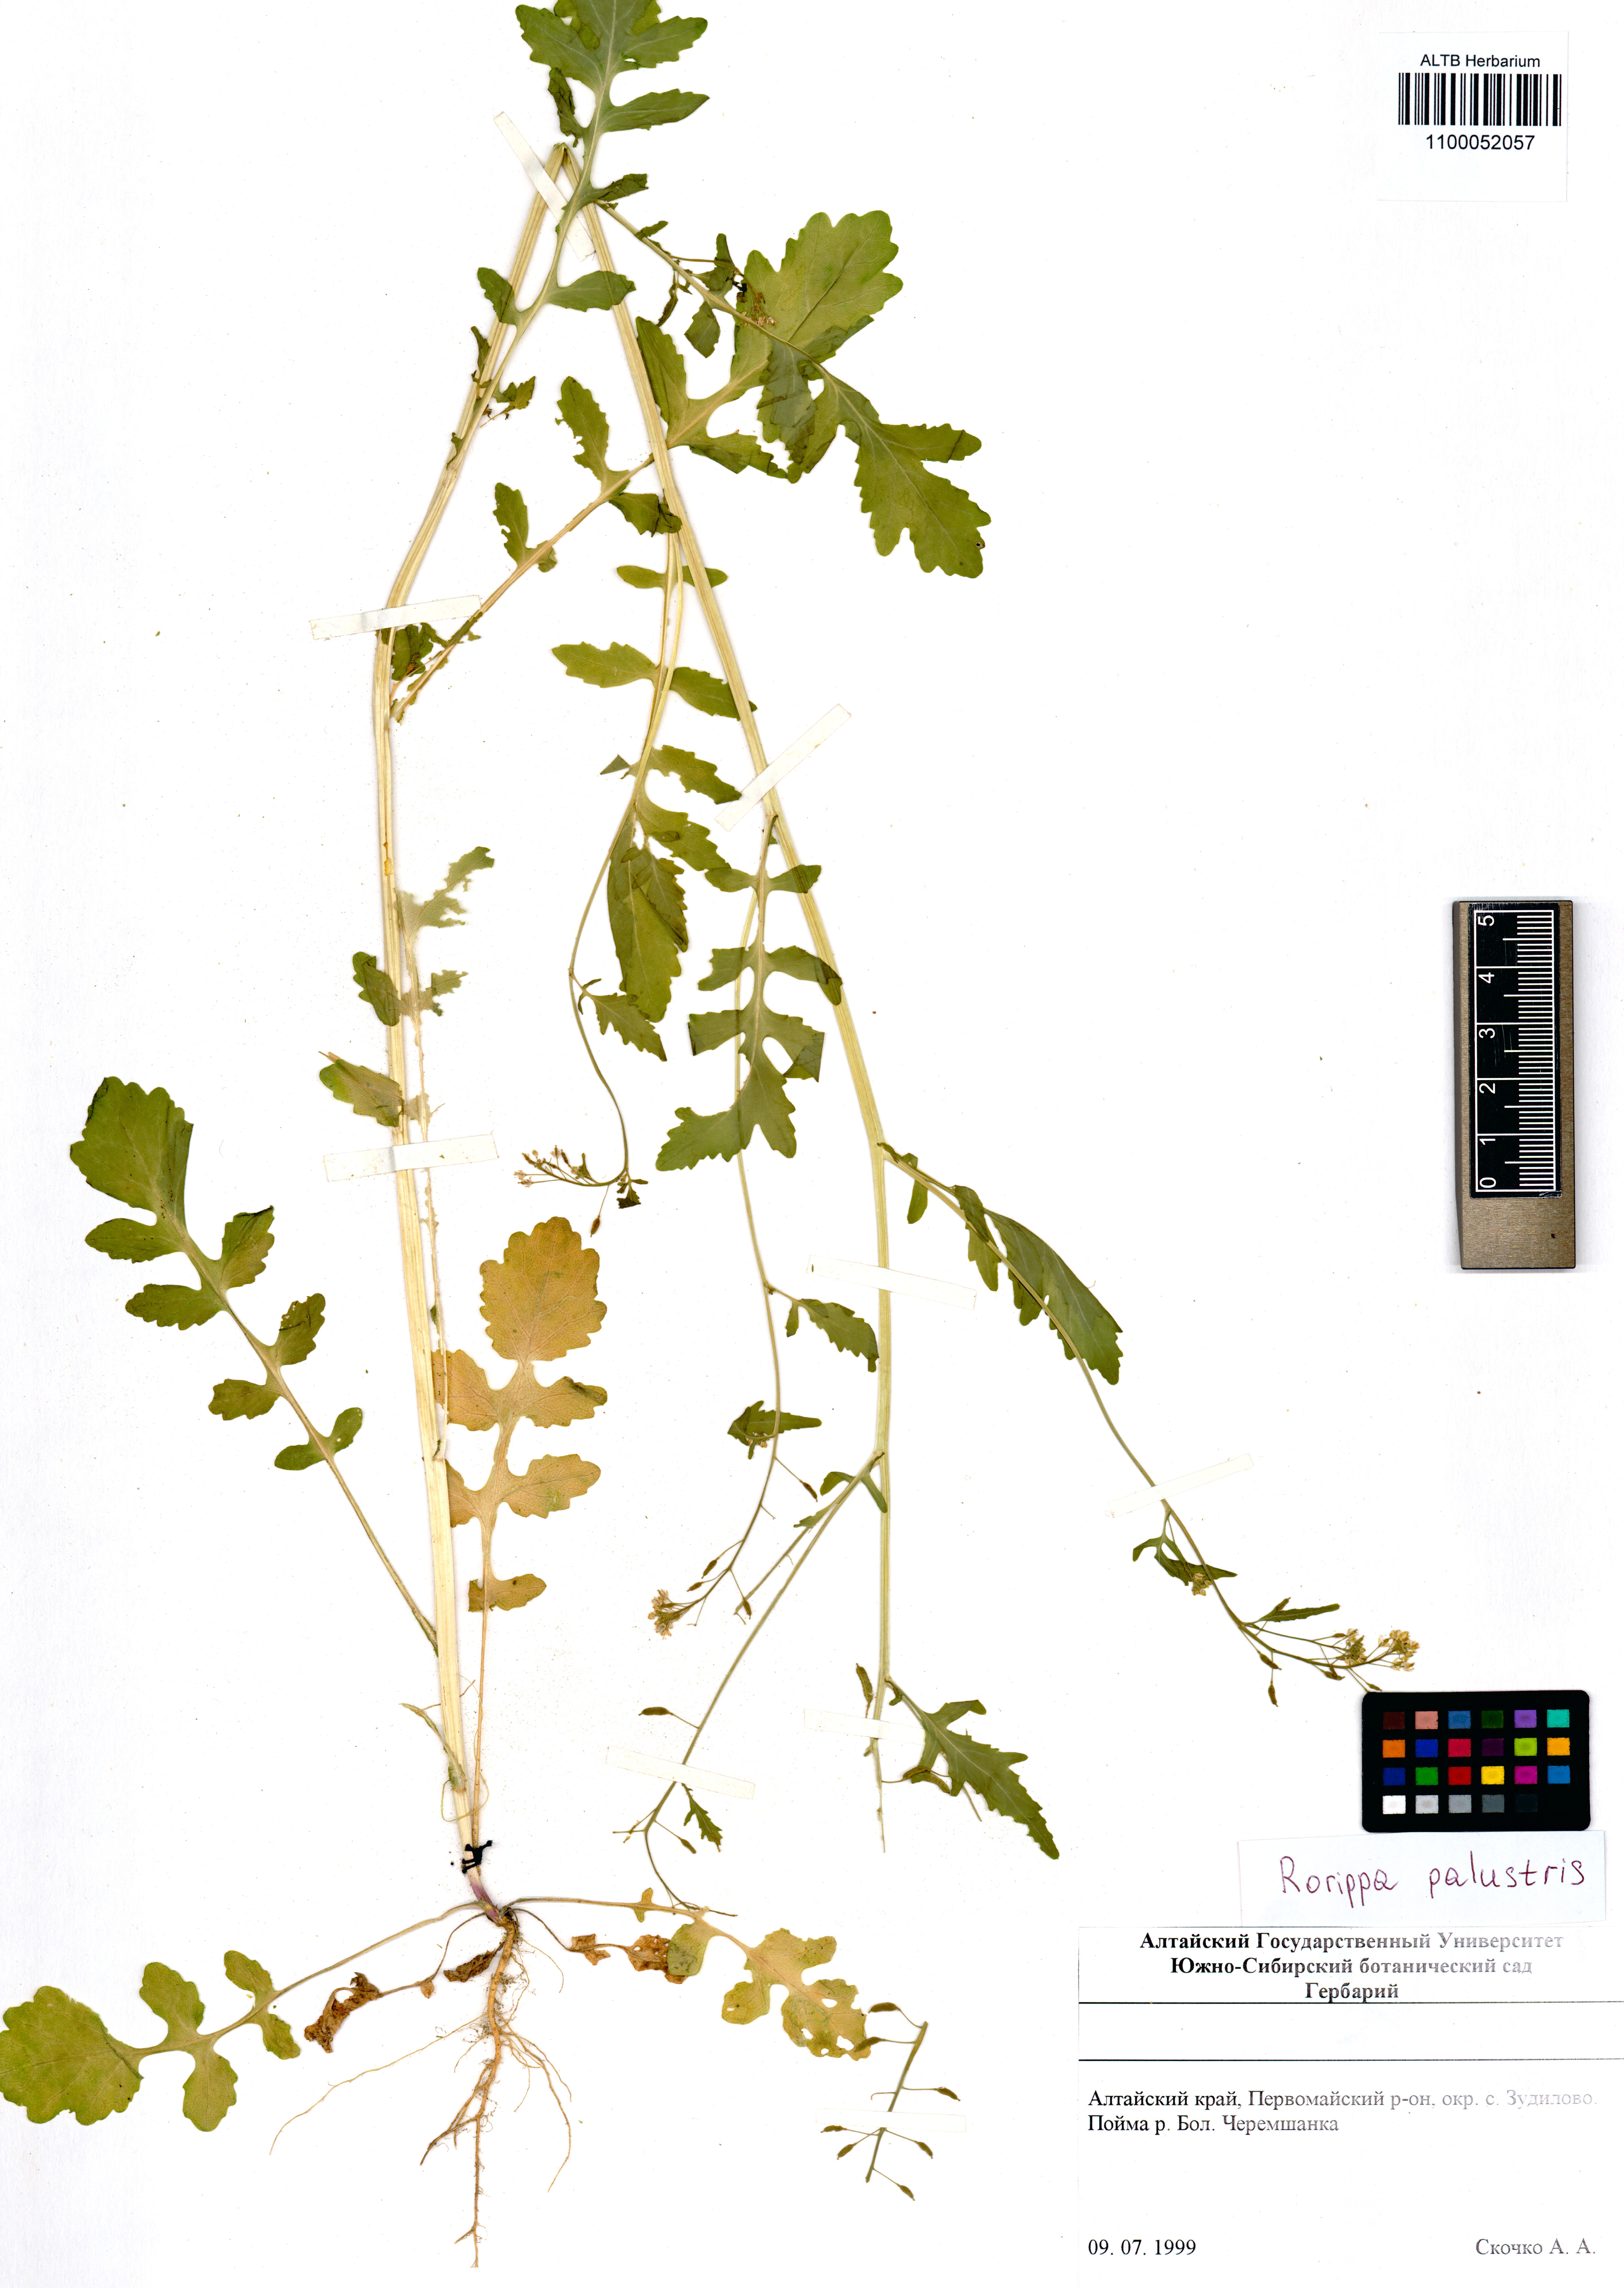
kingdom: Plantae
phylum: Tracheophyta
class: Magnoliopsida
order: Brassicales
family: Brassicaceae
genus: Rorippa
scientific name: Rorippa palustris
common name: Marsh yellow-cress
